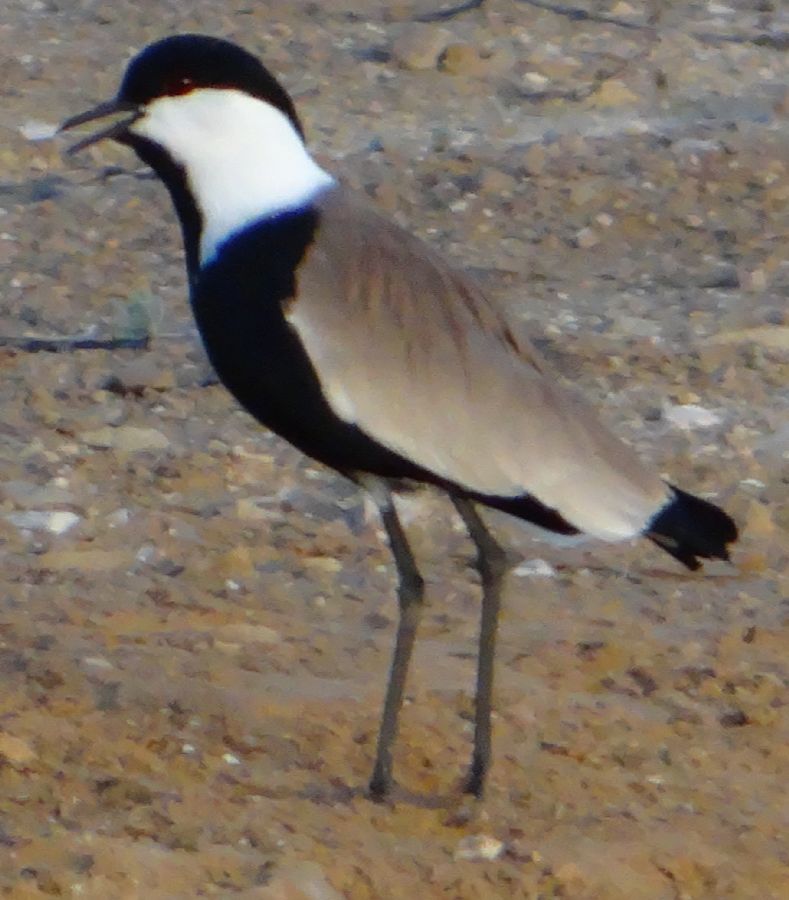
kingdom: Animalia
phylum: Chordata
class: Aves
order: Charadriiformes
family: Charadriidae
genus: Vanellus
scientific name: Vanellus spinosus
